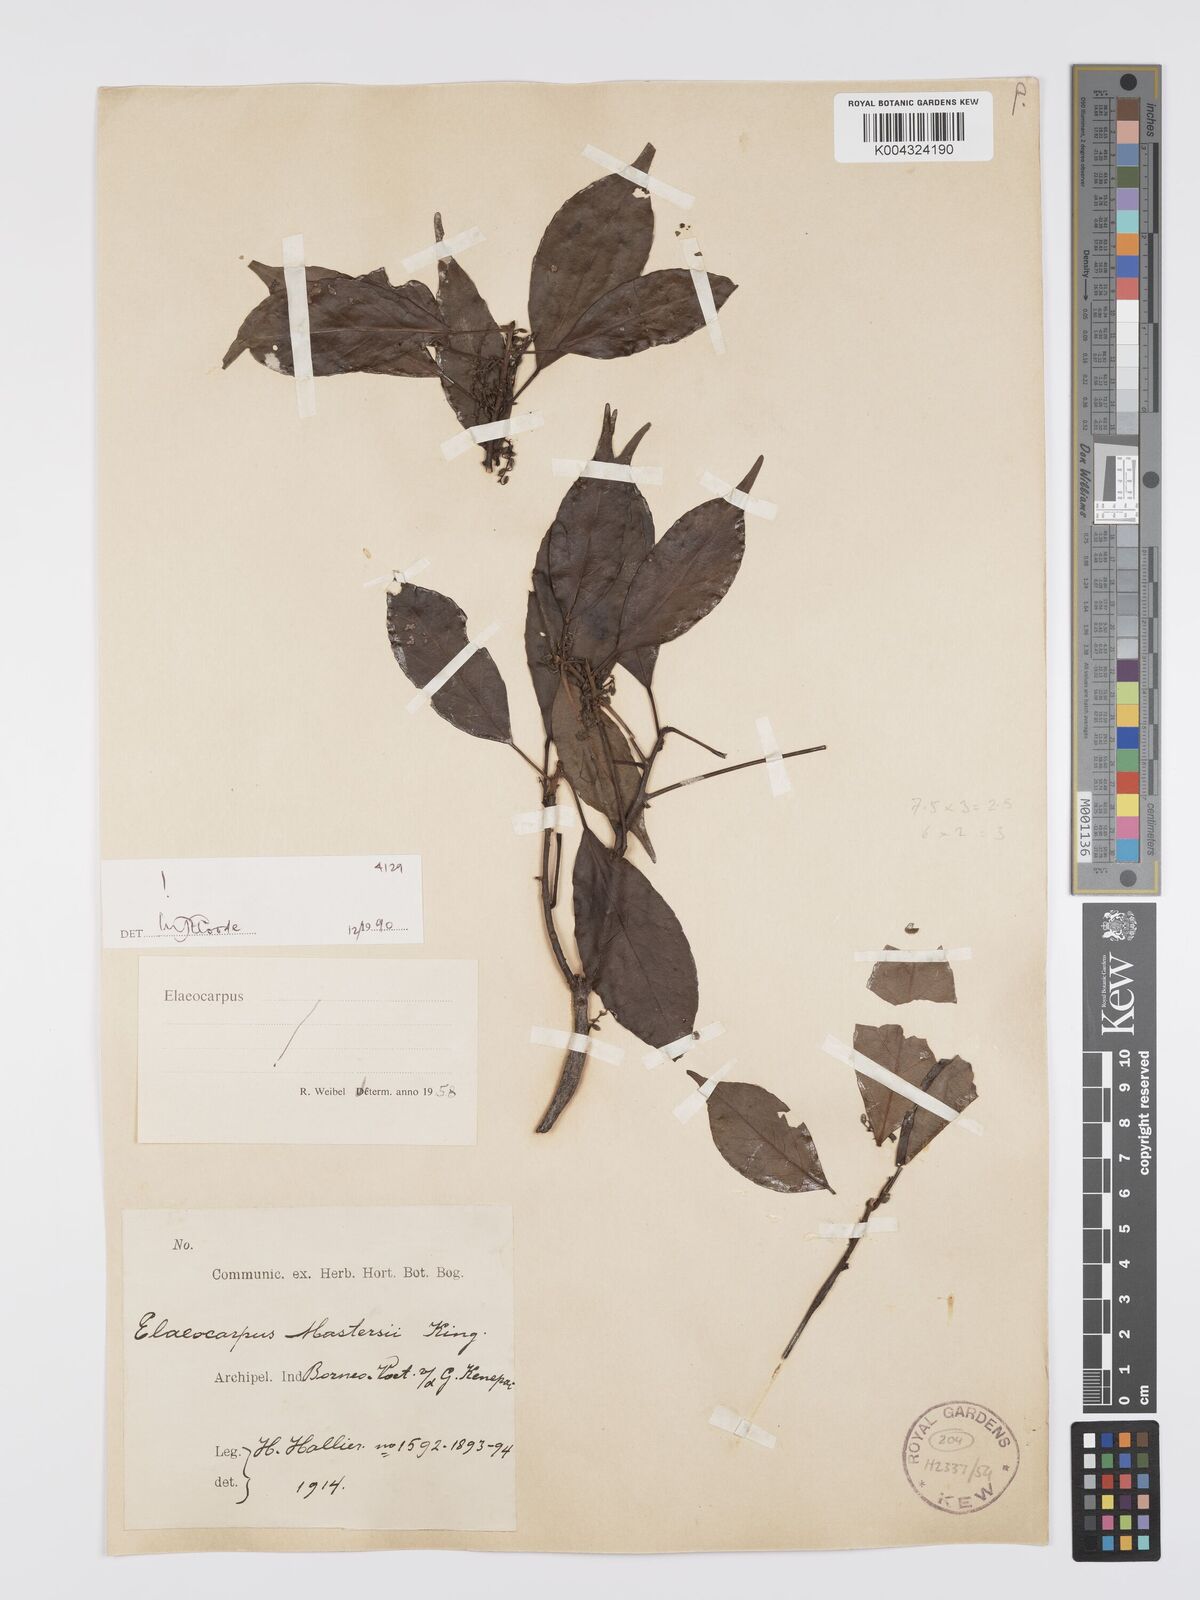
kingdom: Plantae
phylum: Tracheophyta
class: Magnoliopsida
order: Oxalidales
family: Elaeocarpaceae
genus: Elaeocarpus
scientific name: Elaeocarpus mastersii
